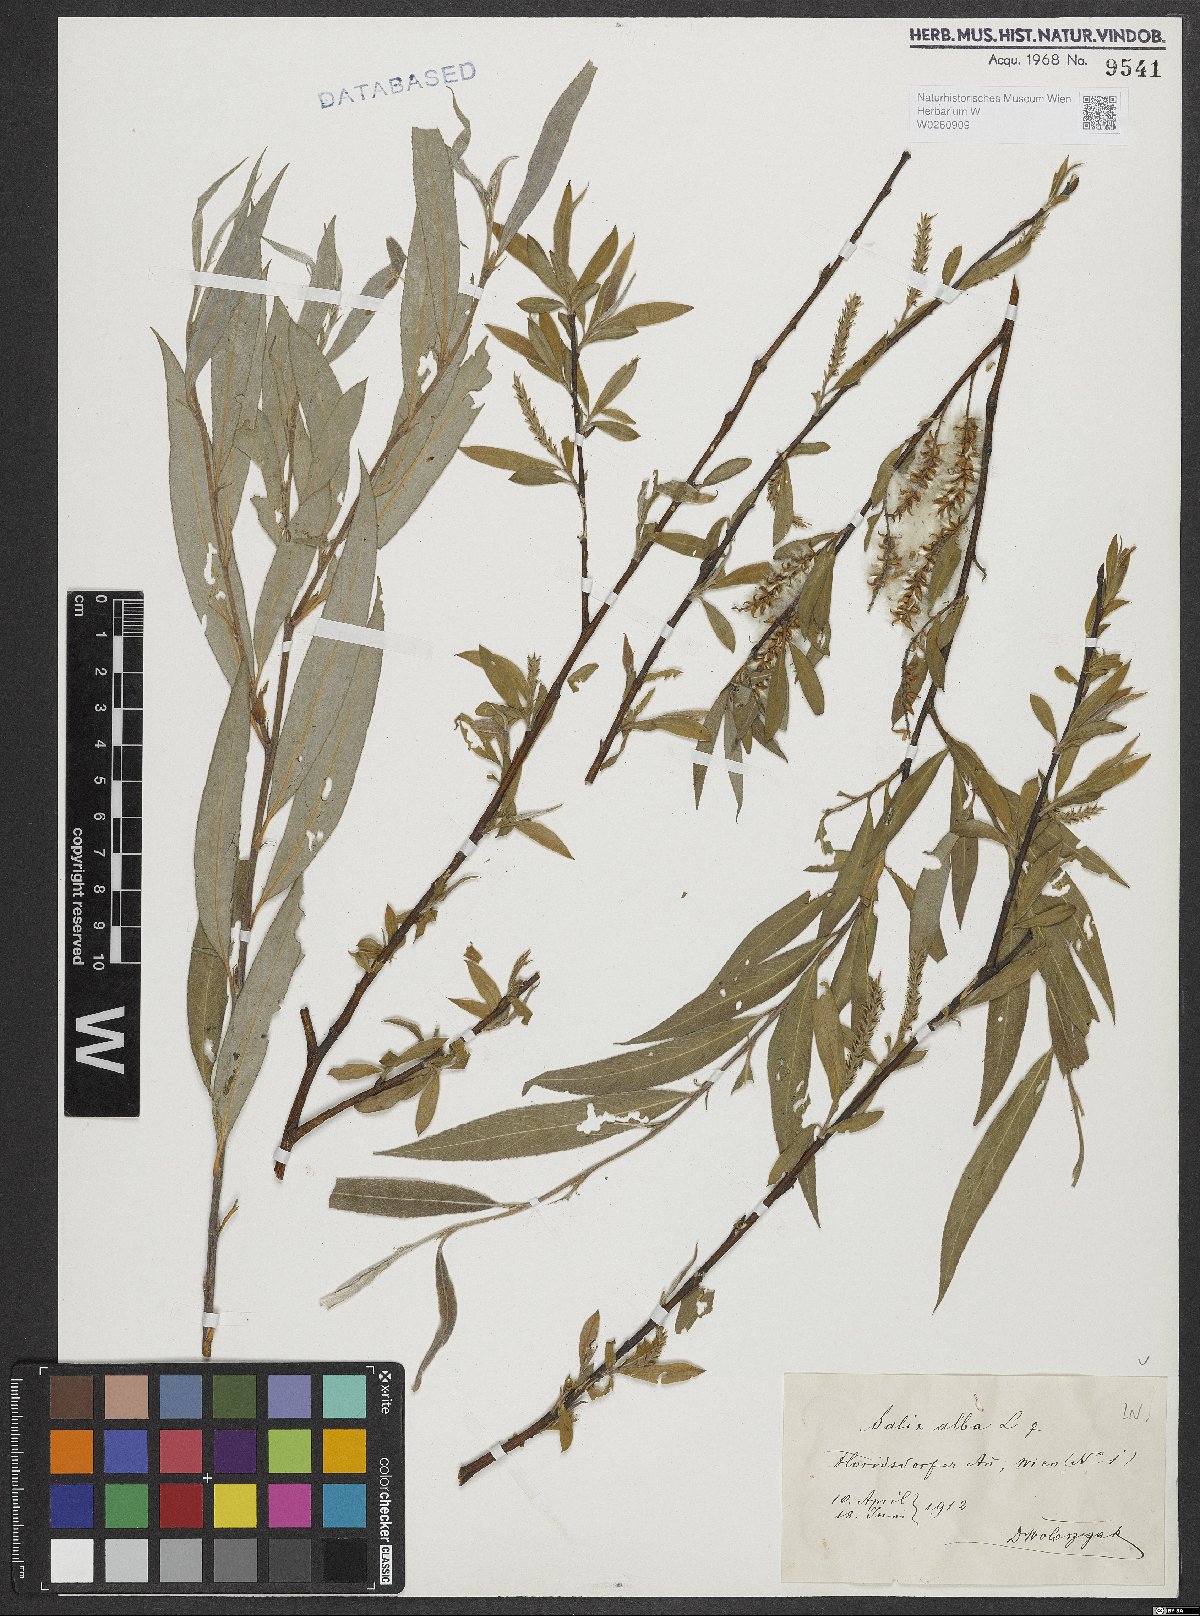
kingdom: Plantae
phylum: Tracheophyta
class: Magnoliopsida
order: Malpighiales
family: Salicaceae
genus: Salix
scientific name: Salix alba
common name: White willow
